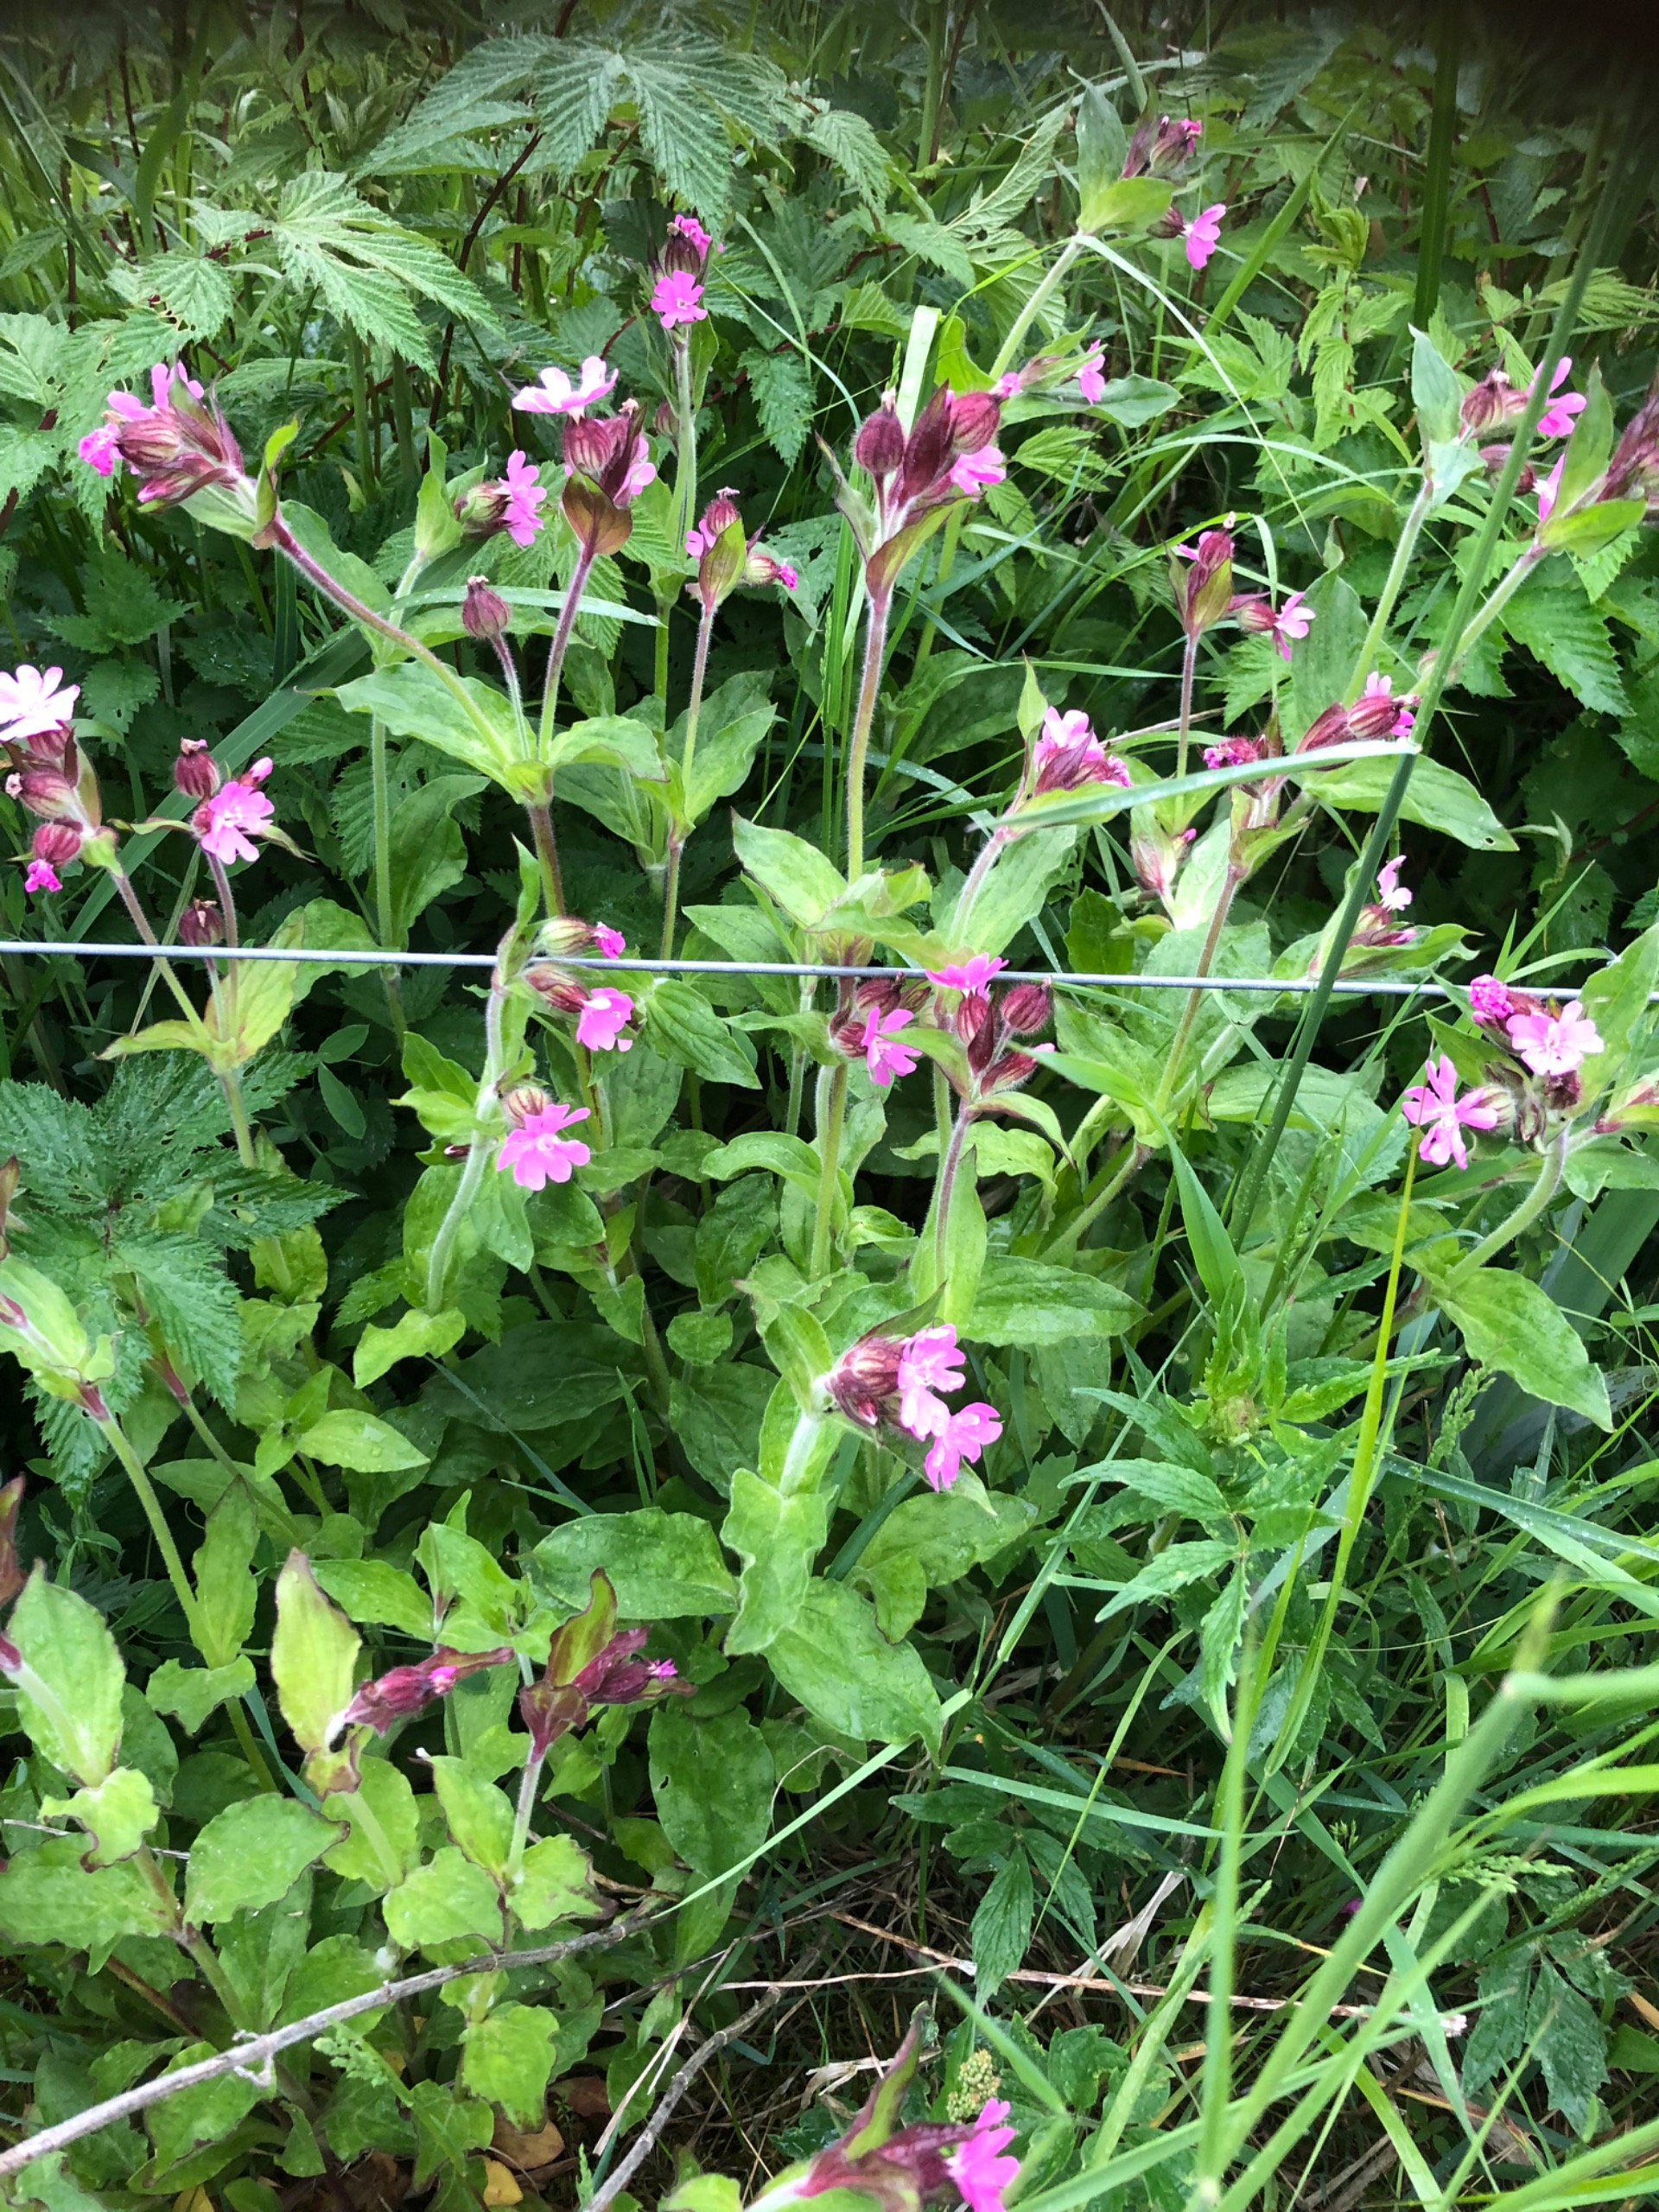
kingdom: Plantae
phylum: Tracheophyta
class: Magnoliopsida
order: Caryophyllales
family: Caryophyllaceae
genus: Silene
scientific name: Silene dioica
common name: Dagpragtstjerne
